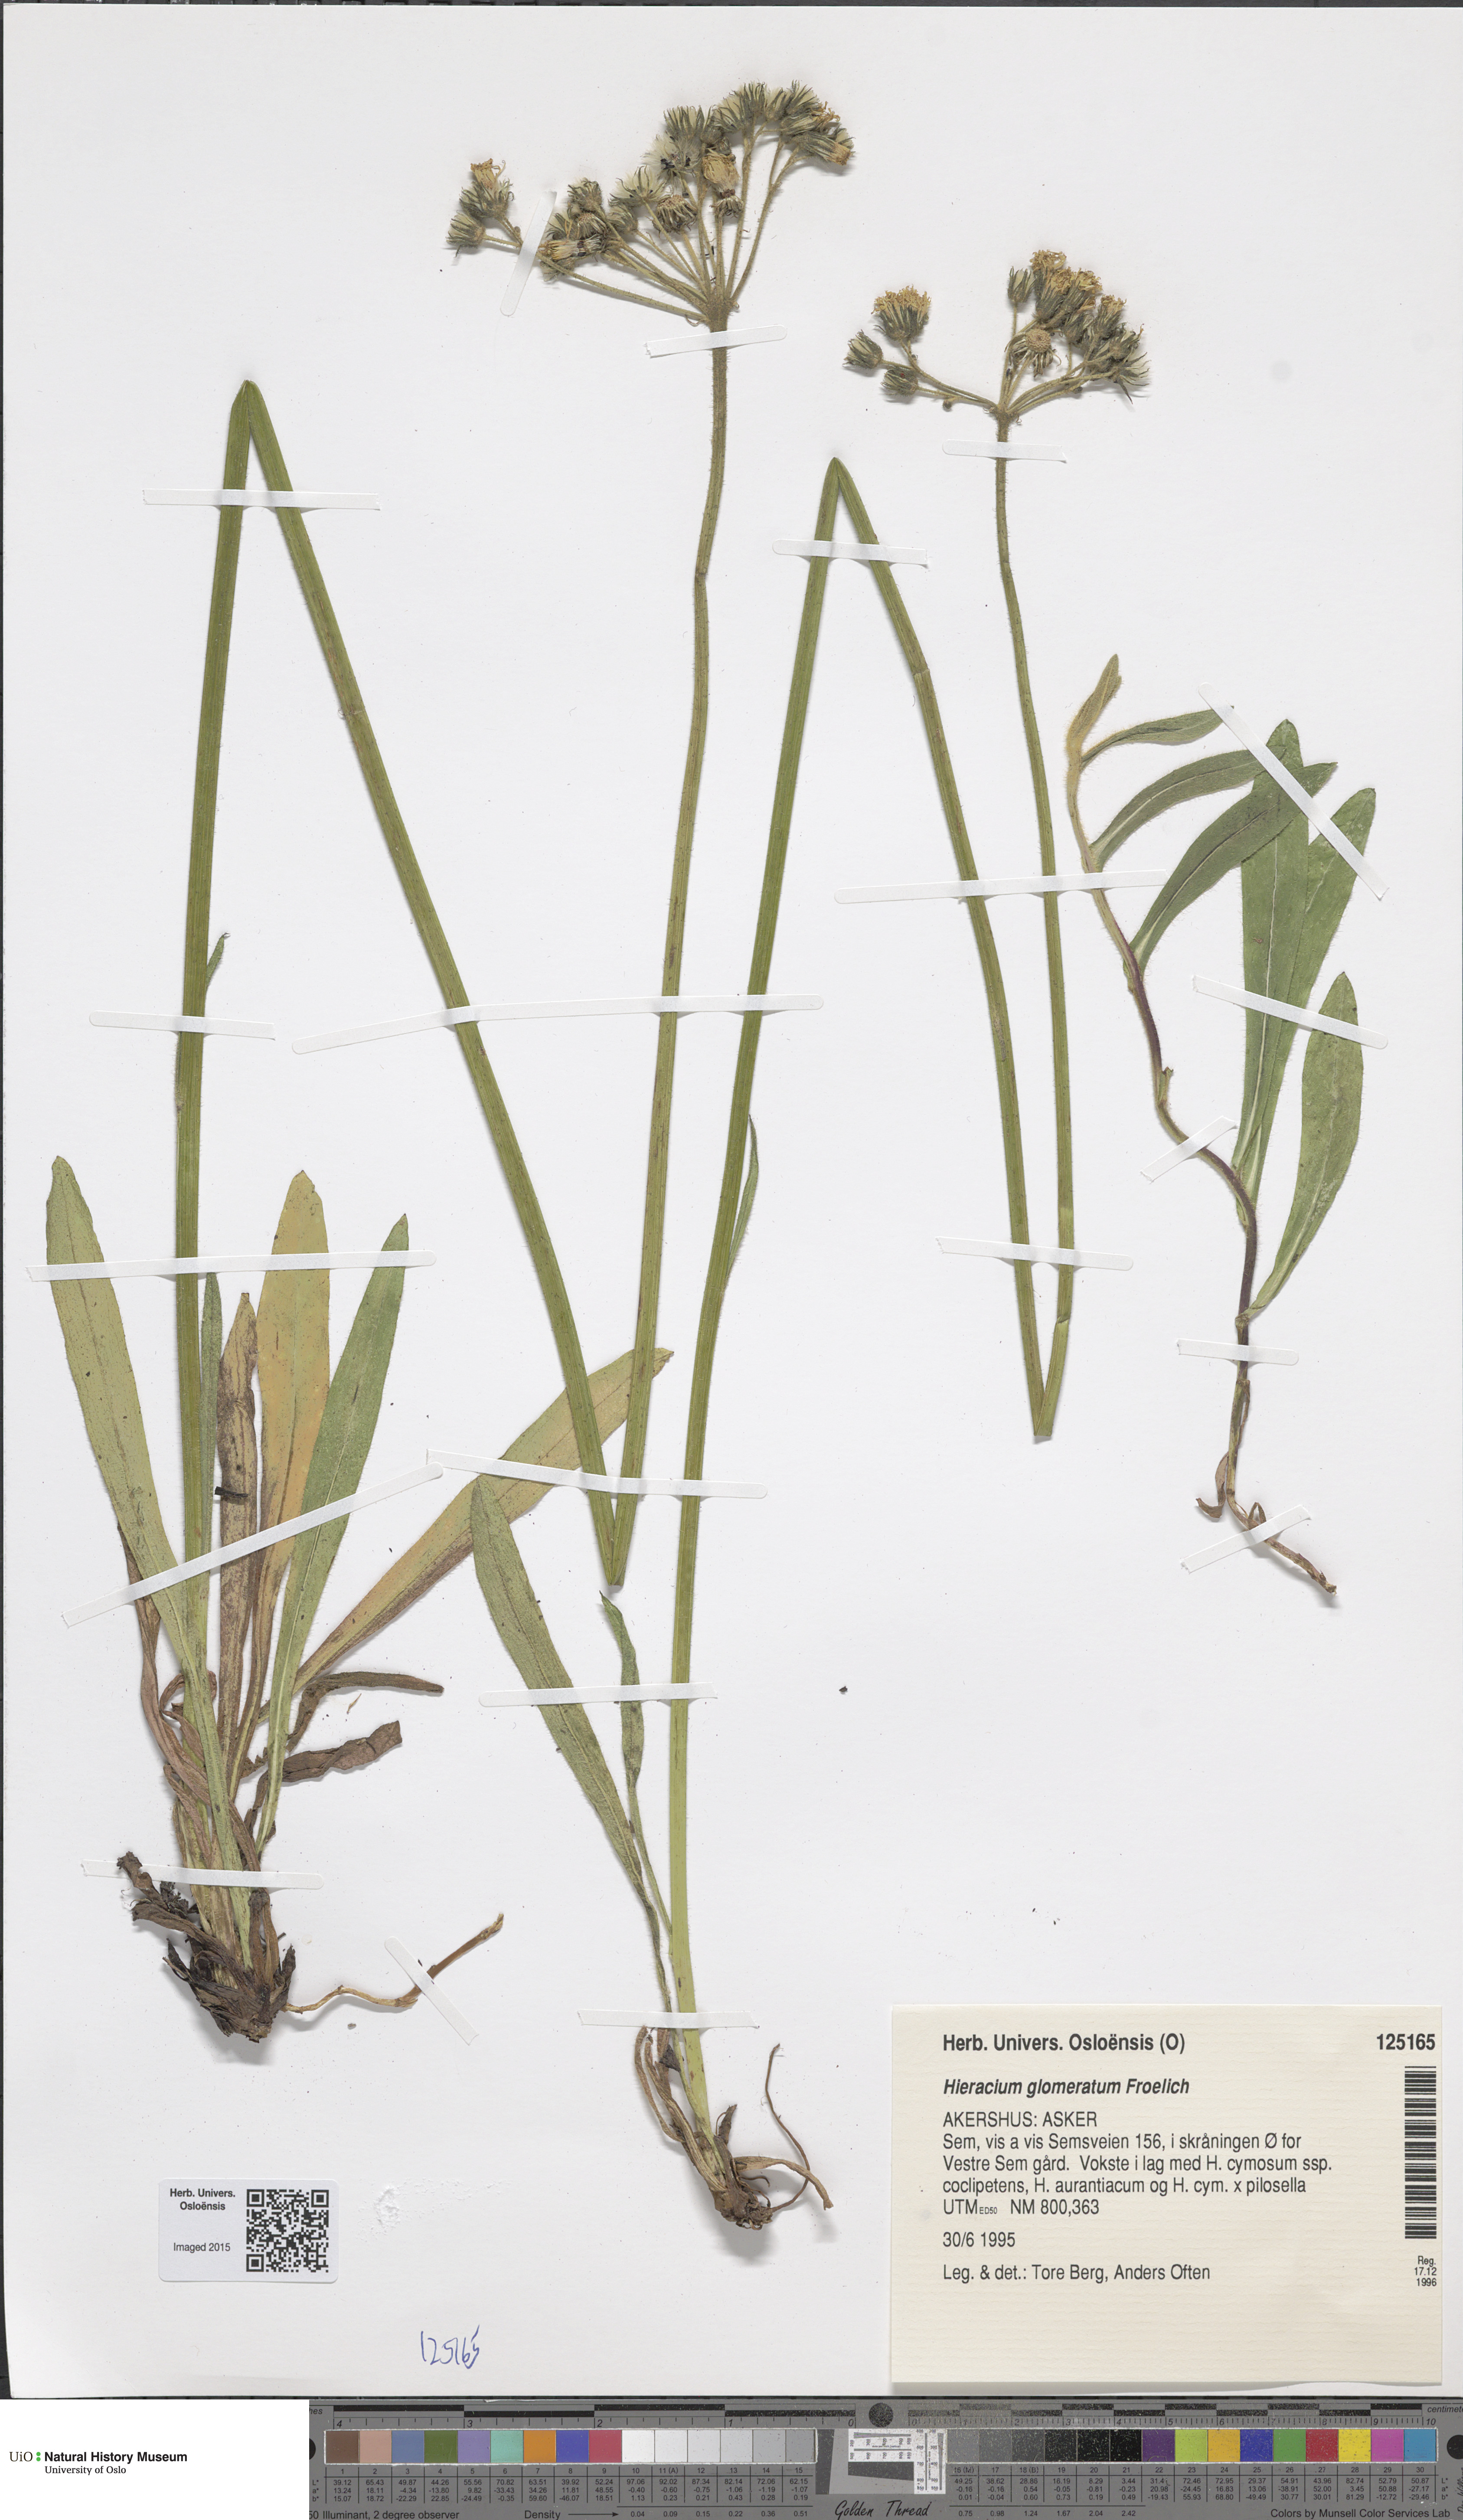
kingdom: Plantae
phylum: Tracheophyta
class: Magnoliopsida
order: Asterales
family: Asteraceae
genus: Pilosella
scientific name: Pilosella glomerata
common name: Queen devil hawkweed
